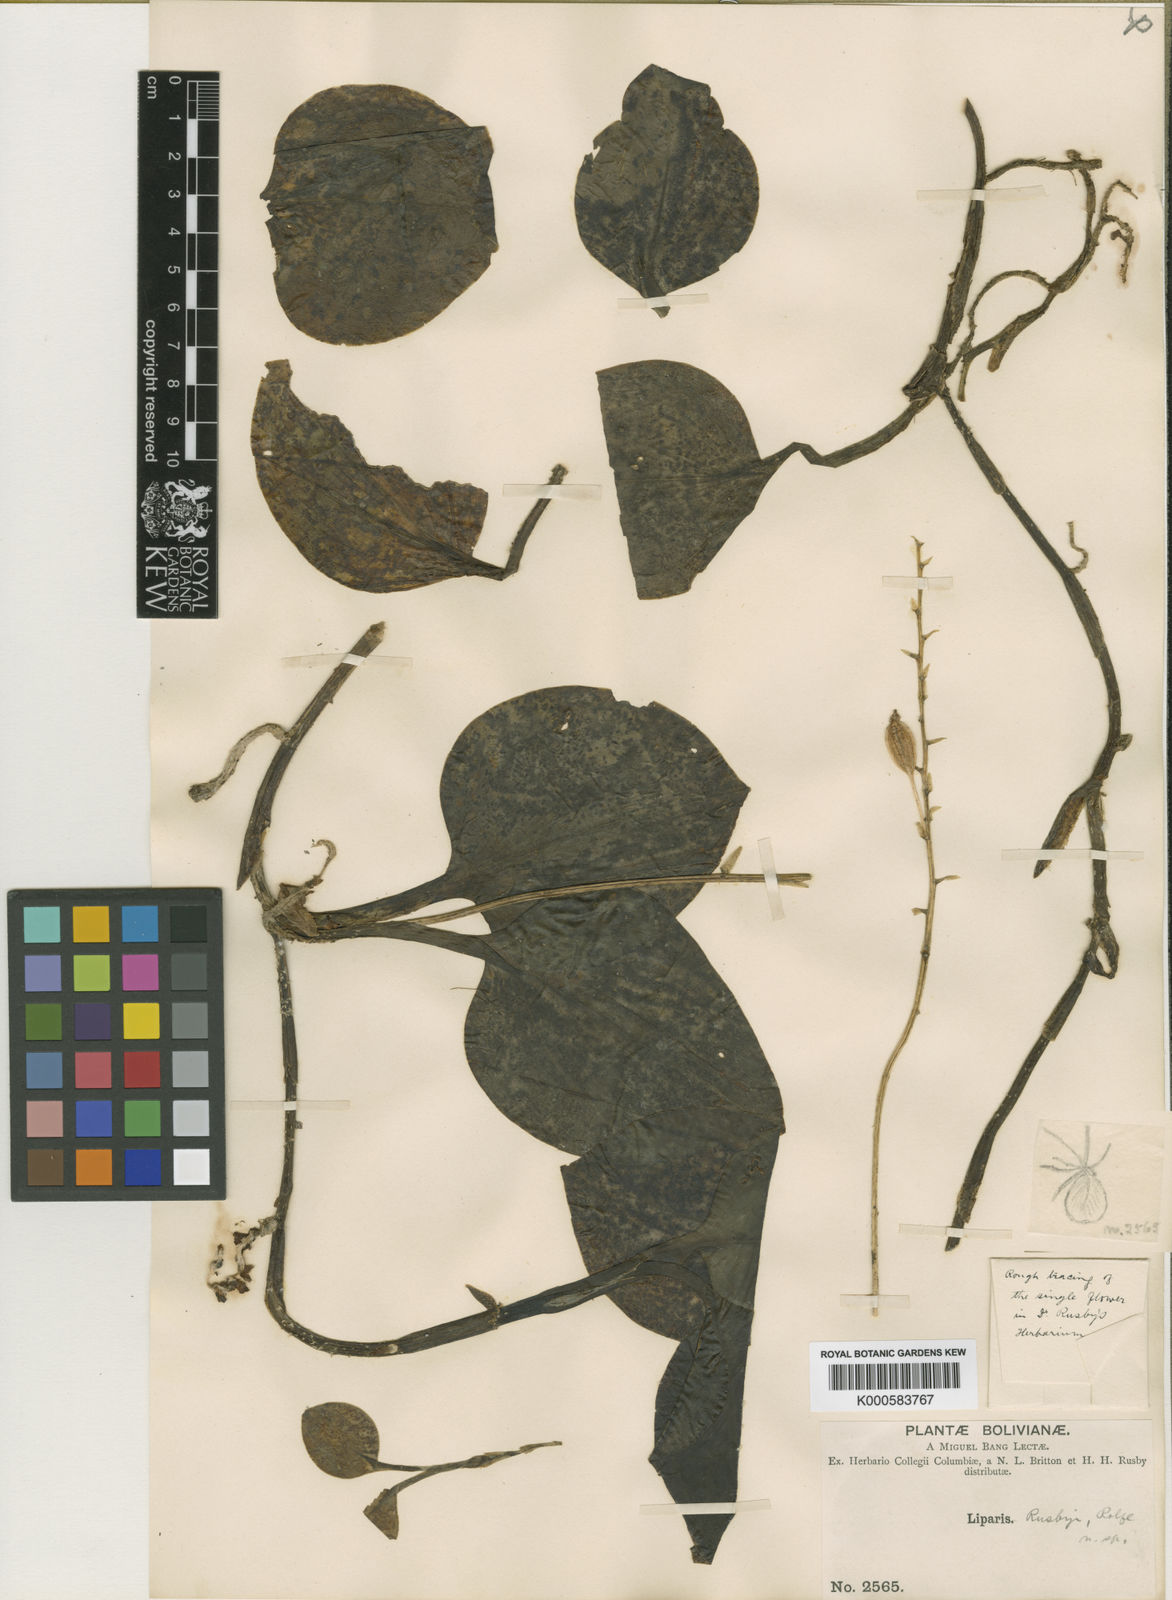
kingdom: Plantae
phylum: Tracheophyta
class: Liliopsida
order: Asparagales
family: Orchidaceae
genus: Liparis
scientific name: Liparis rusbyi
